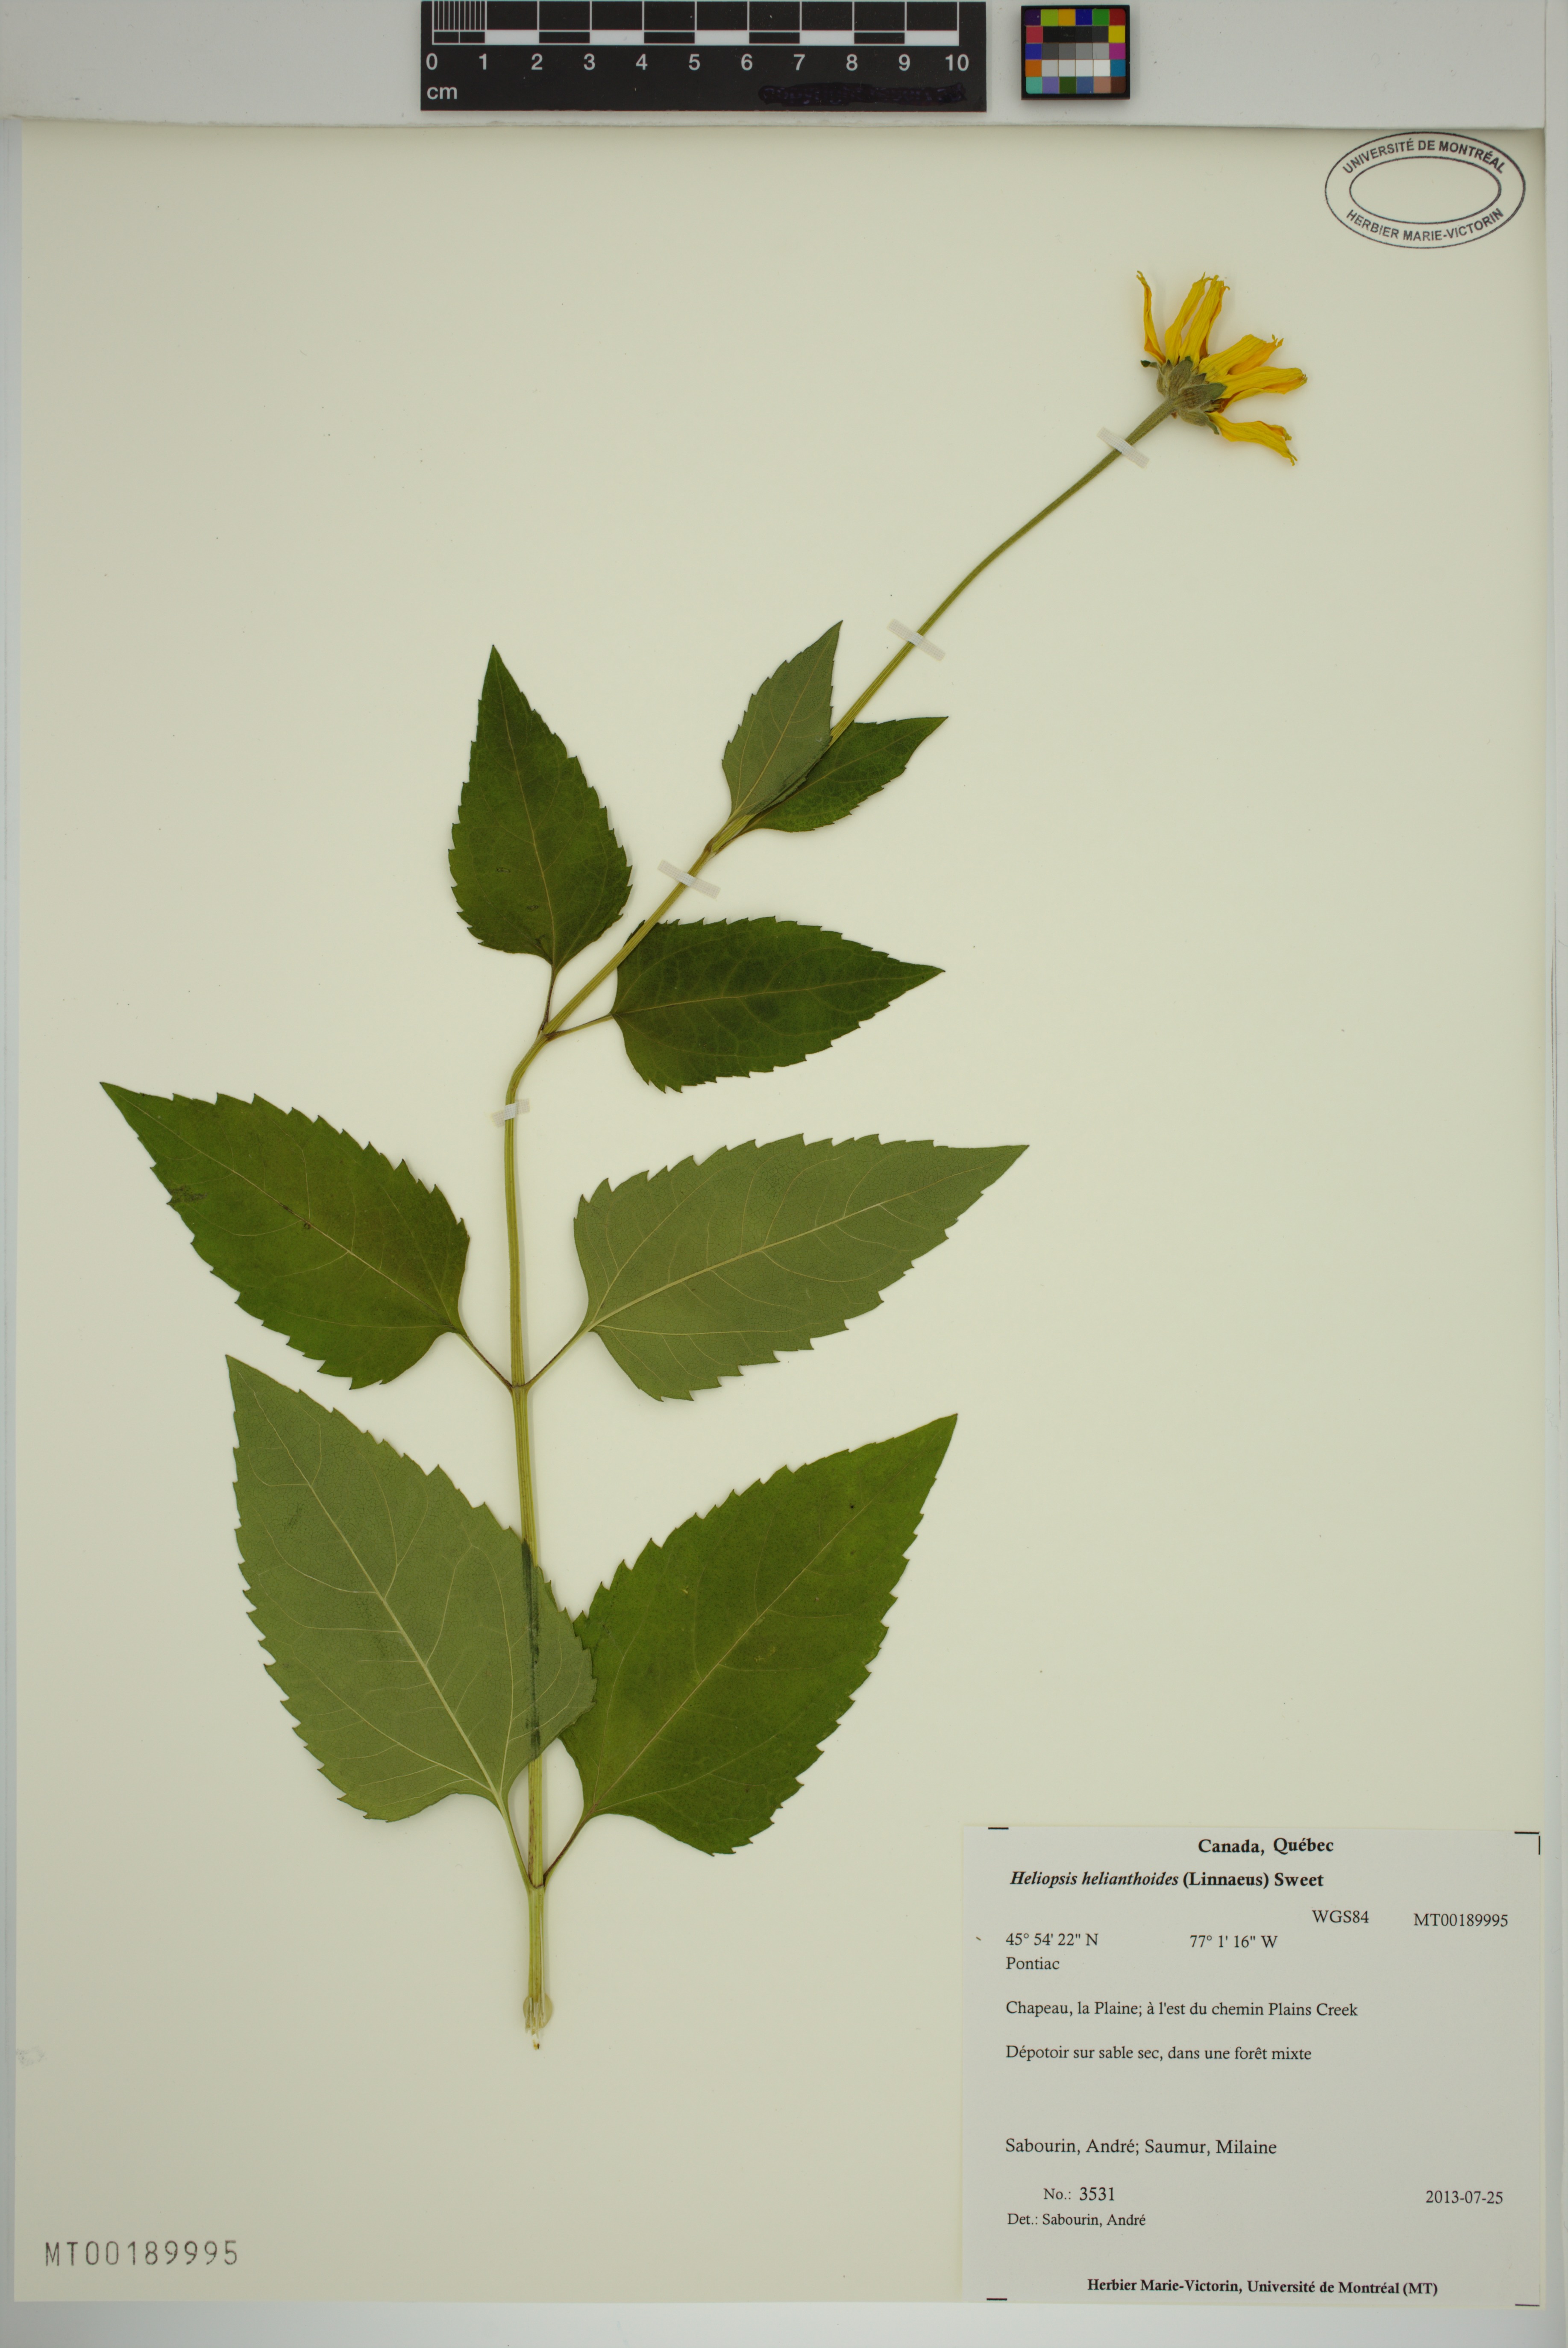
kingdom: Plantae
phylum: Tracheophyta
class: Magnoliopsida
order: Asterales
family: Asteraceae
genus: Heliopsis
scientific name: Heliopsis helianthoides
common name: False sunflower
